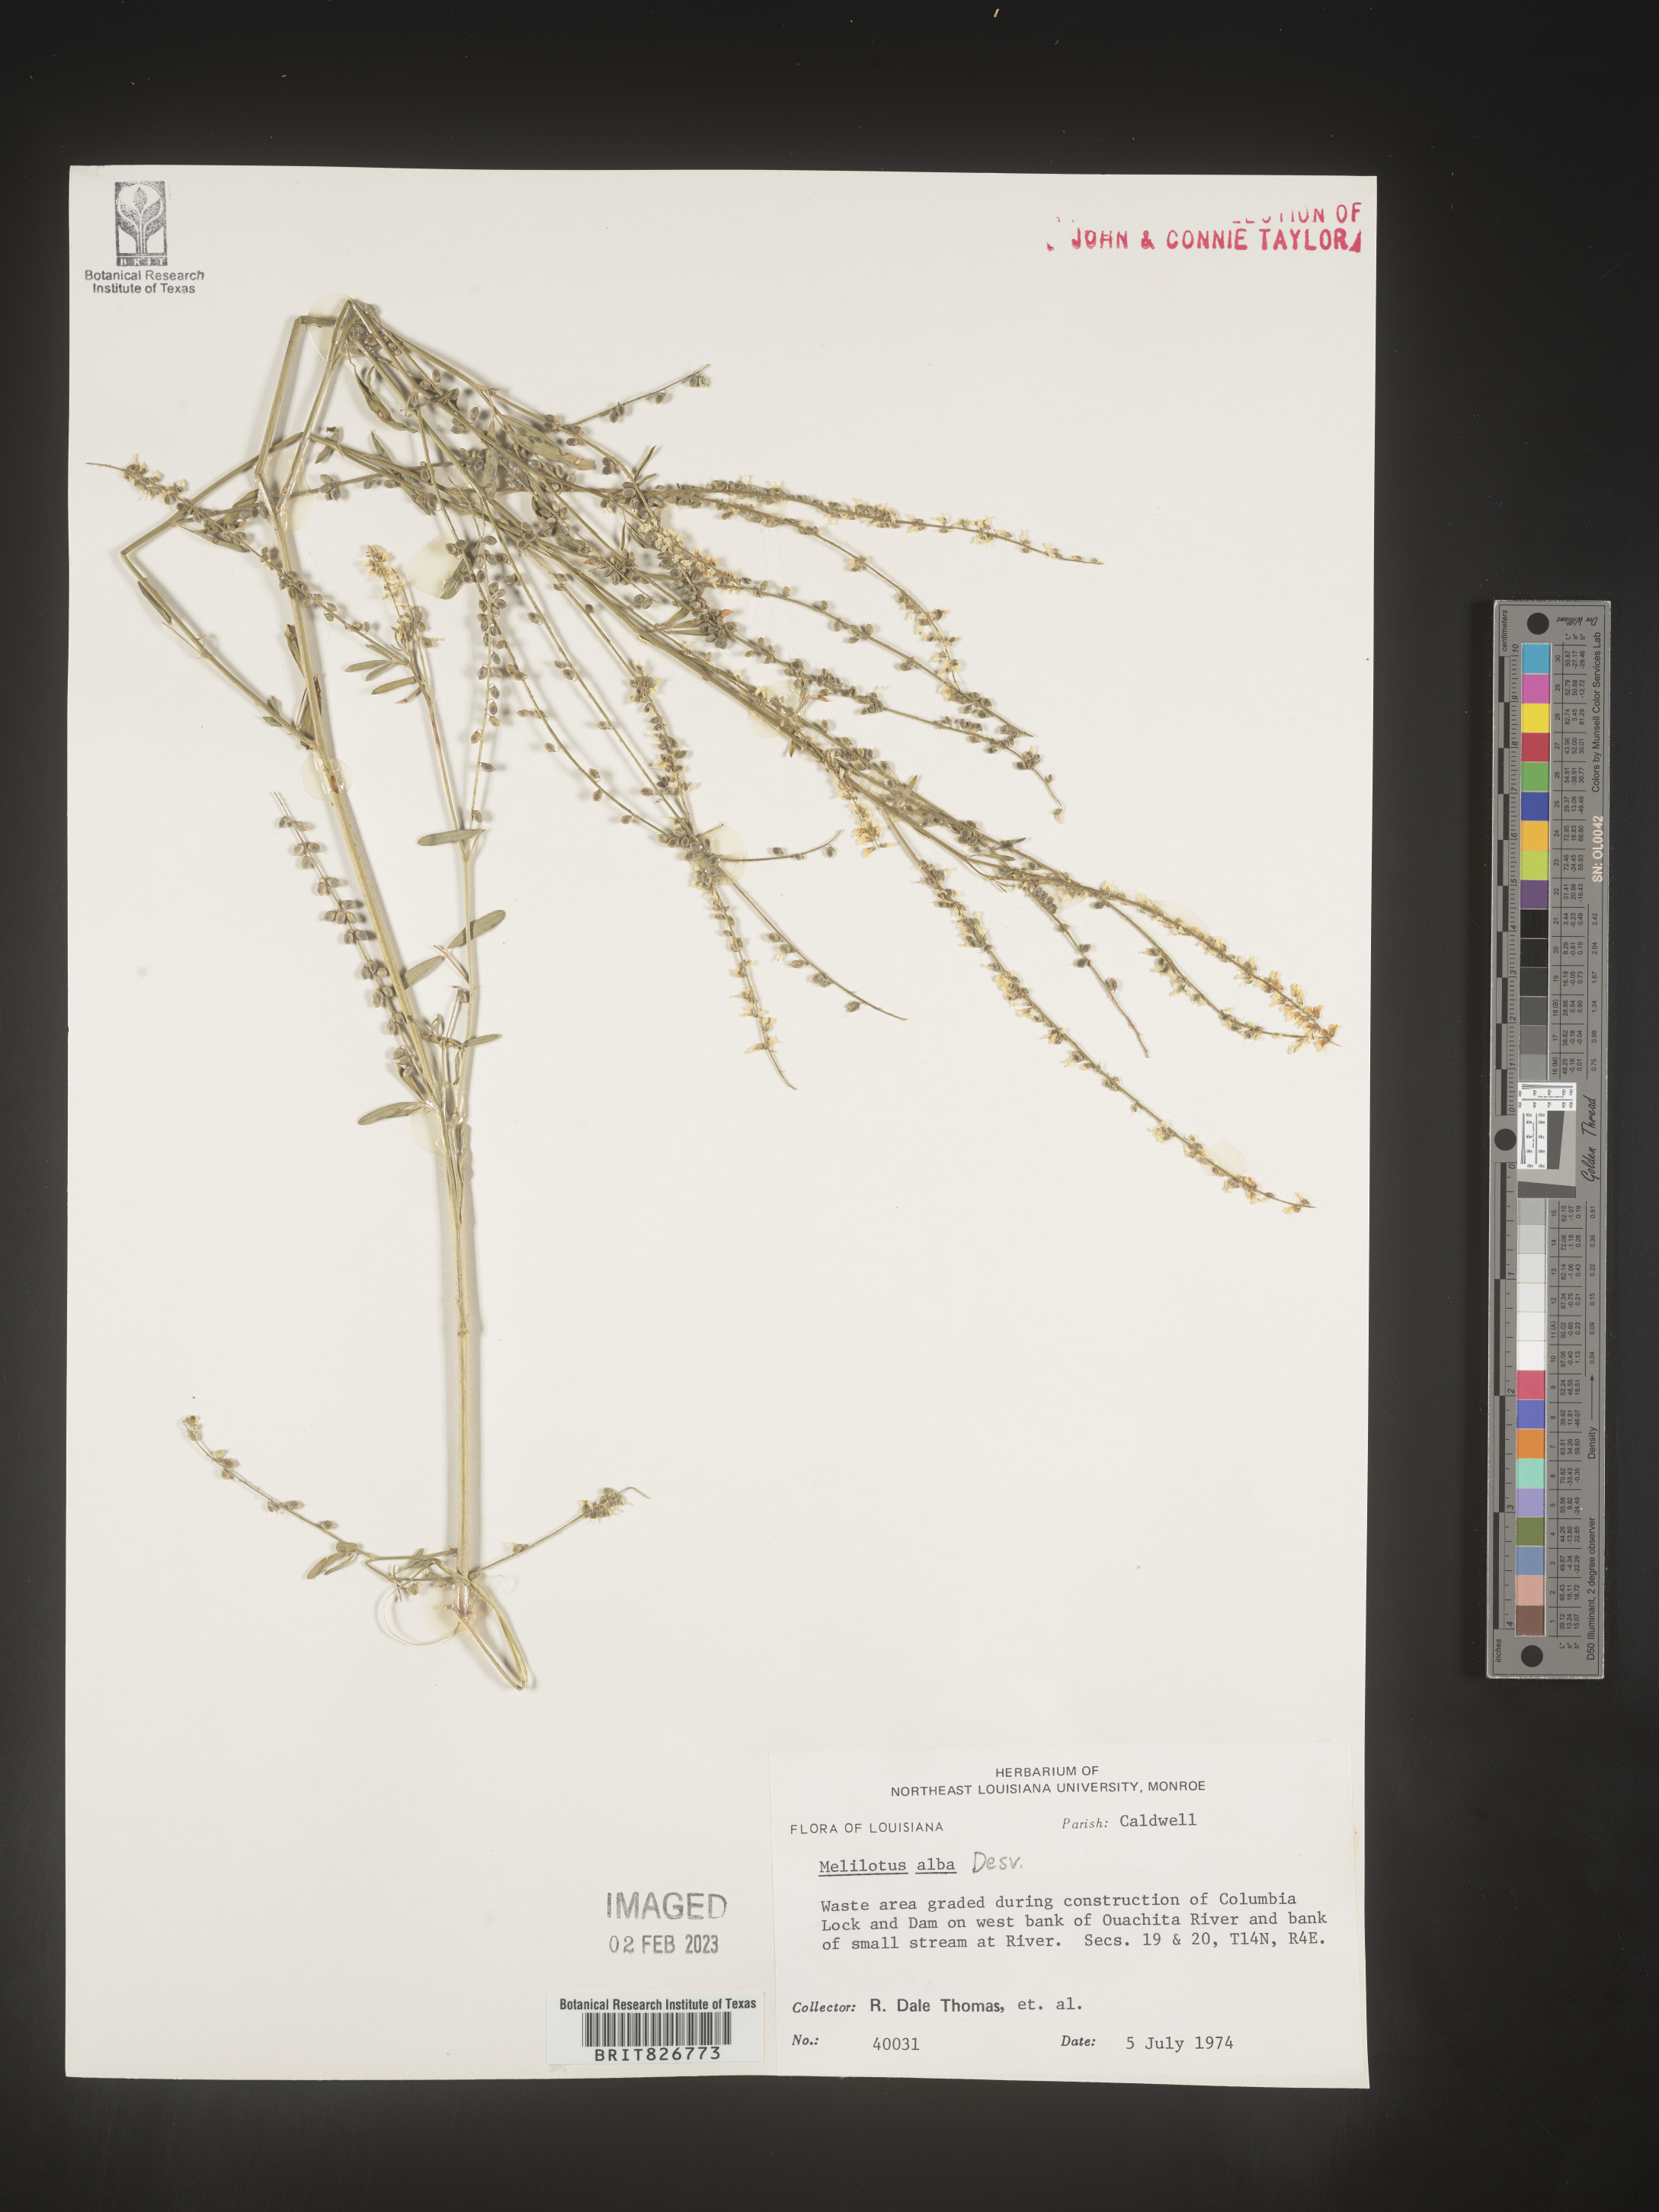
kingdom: Plantae
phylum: Tracheophyta
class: Magnoliopsida
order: Fabales
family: Fabaceae
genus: Melilotus
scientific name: Melilotus albus
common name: White melilot
